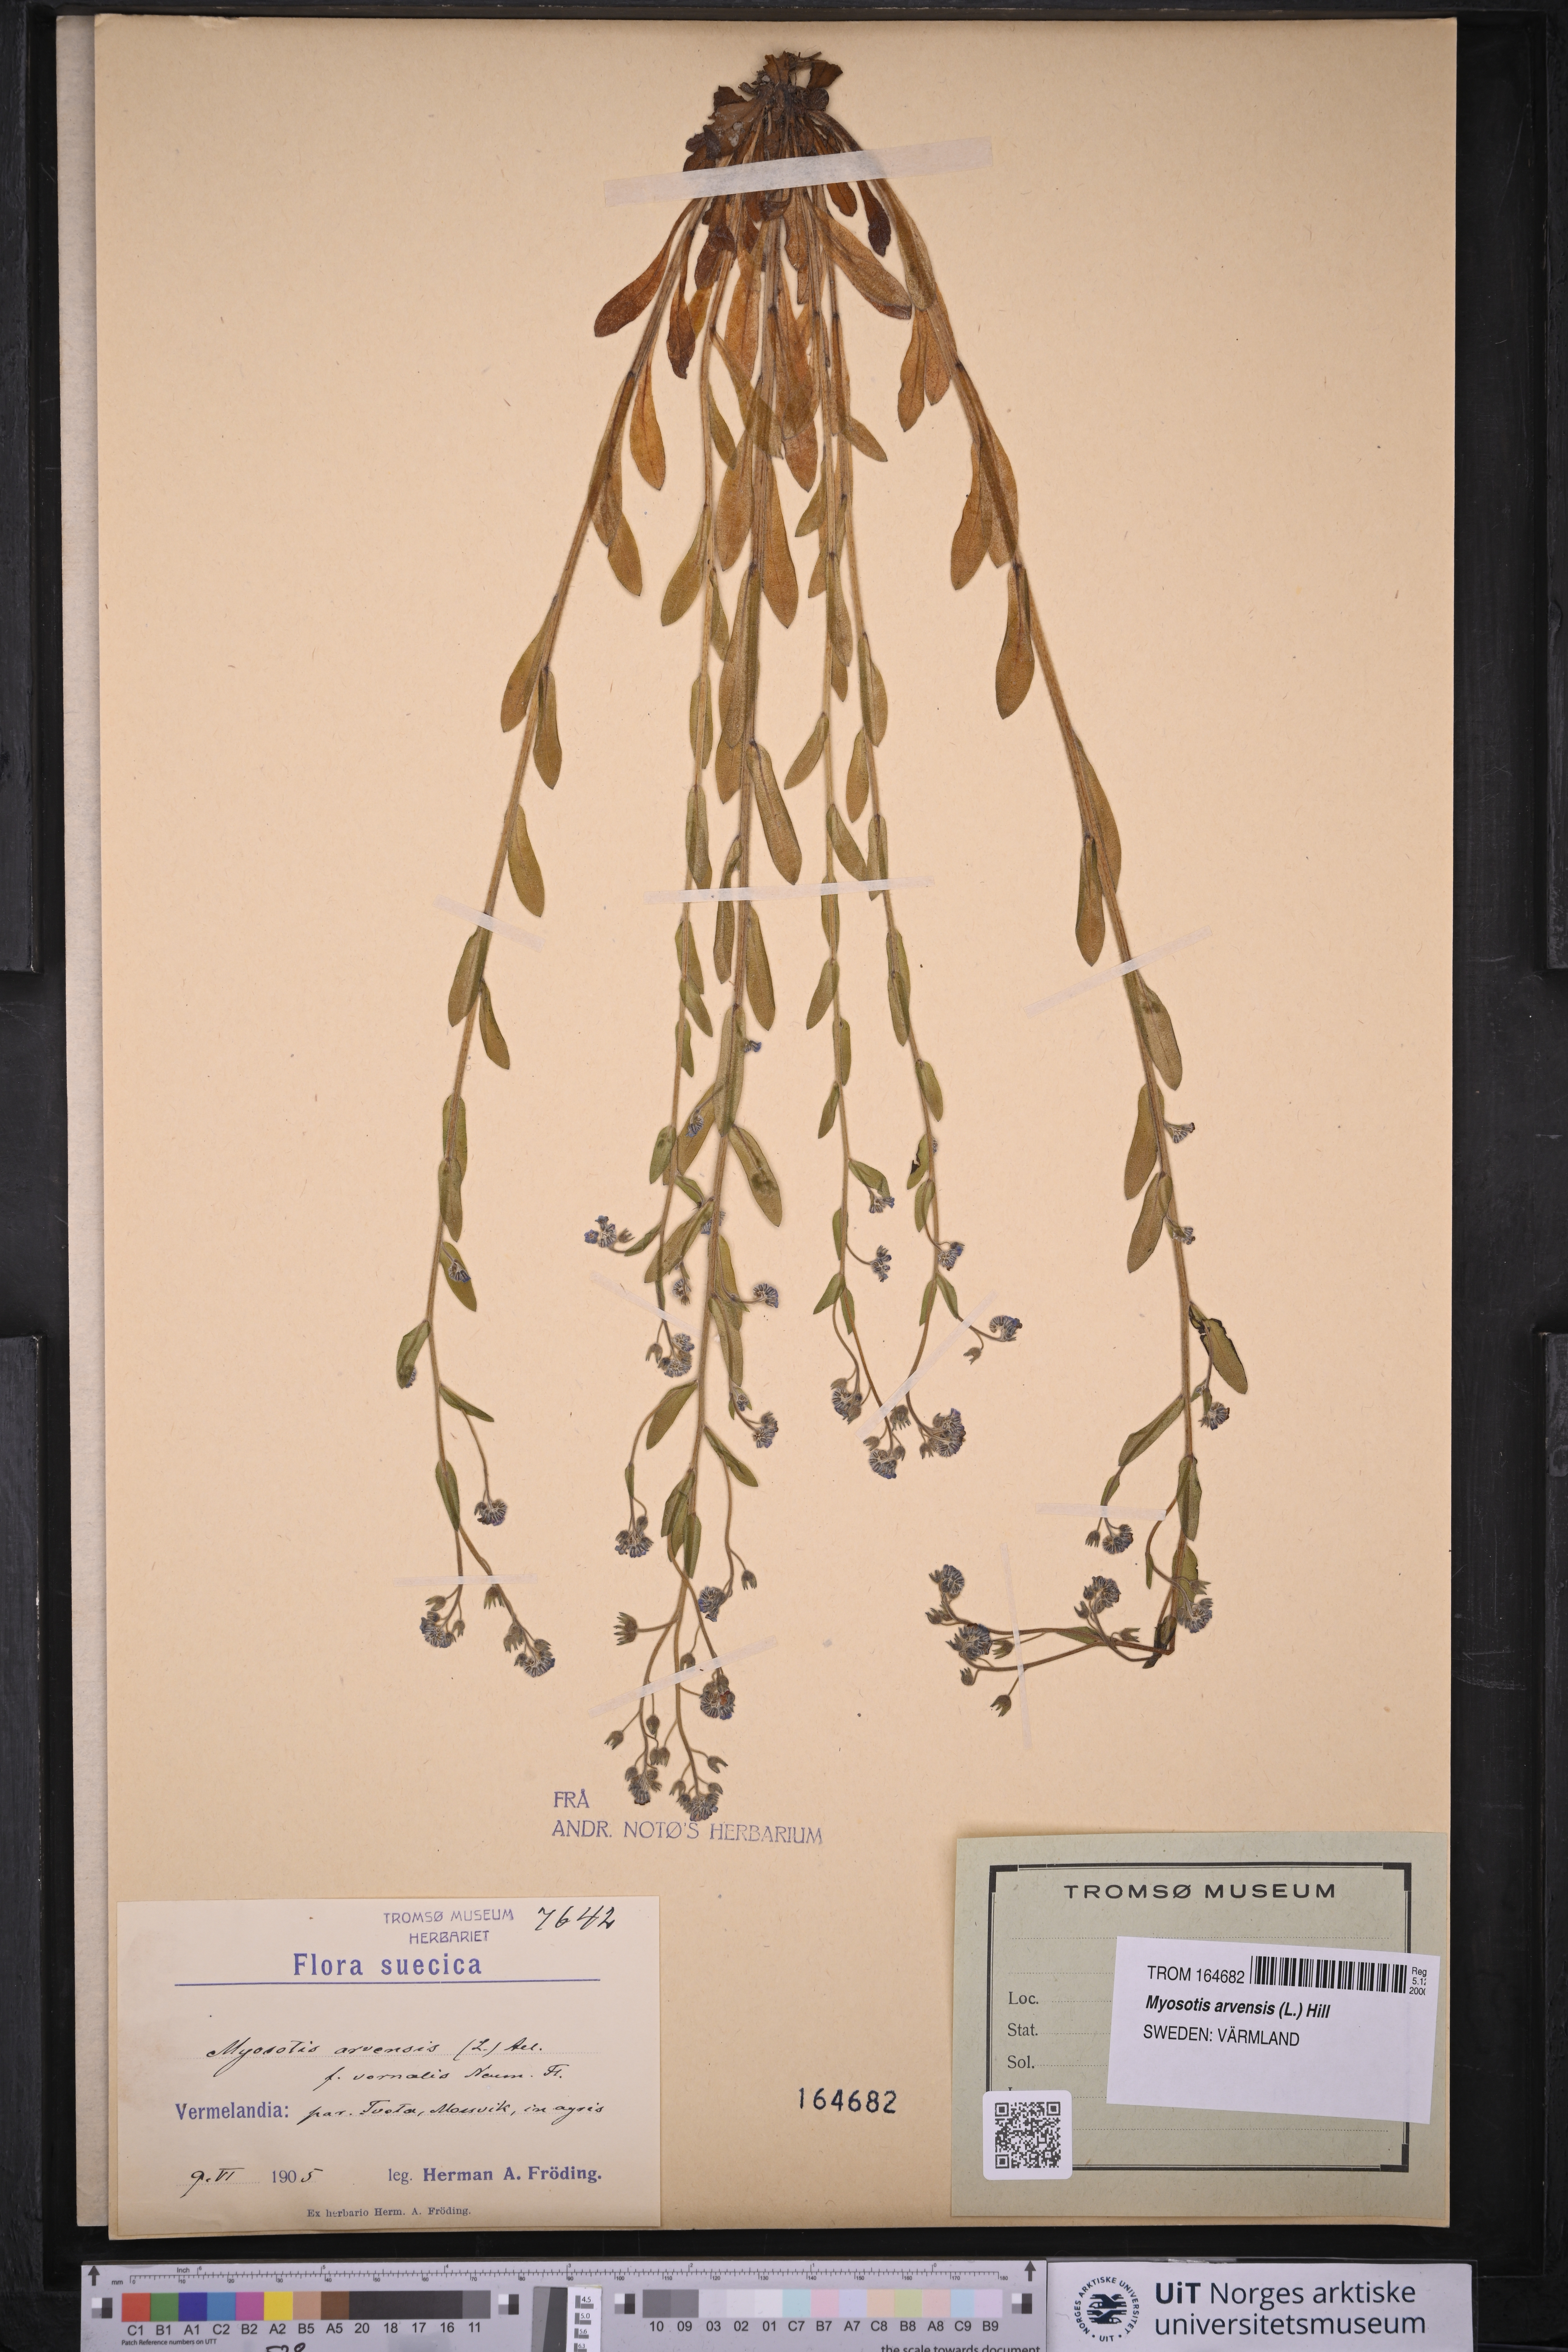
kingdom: Plantae
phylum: Tracheophyta
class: Magnoliopsida
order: Boraginales
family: Boraginaceae
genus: Myosotis
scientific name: Myosotis arvensis
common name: Field forget-me-not
